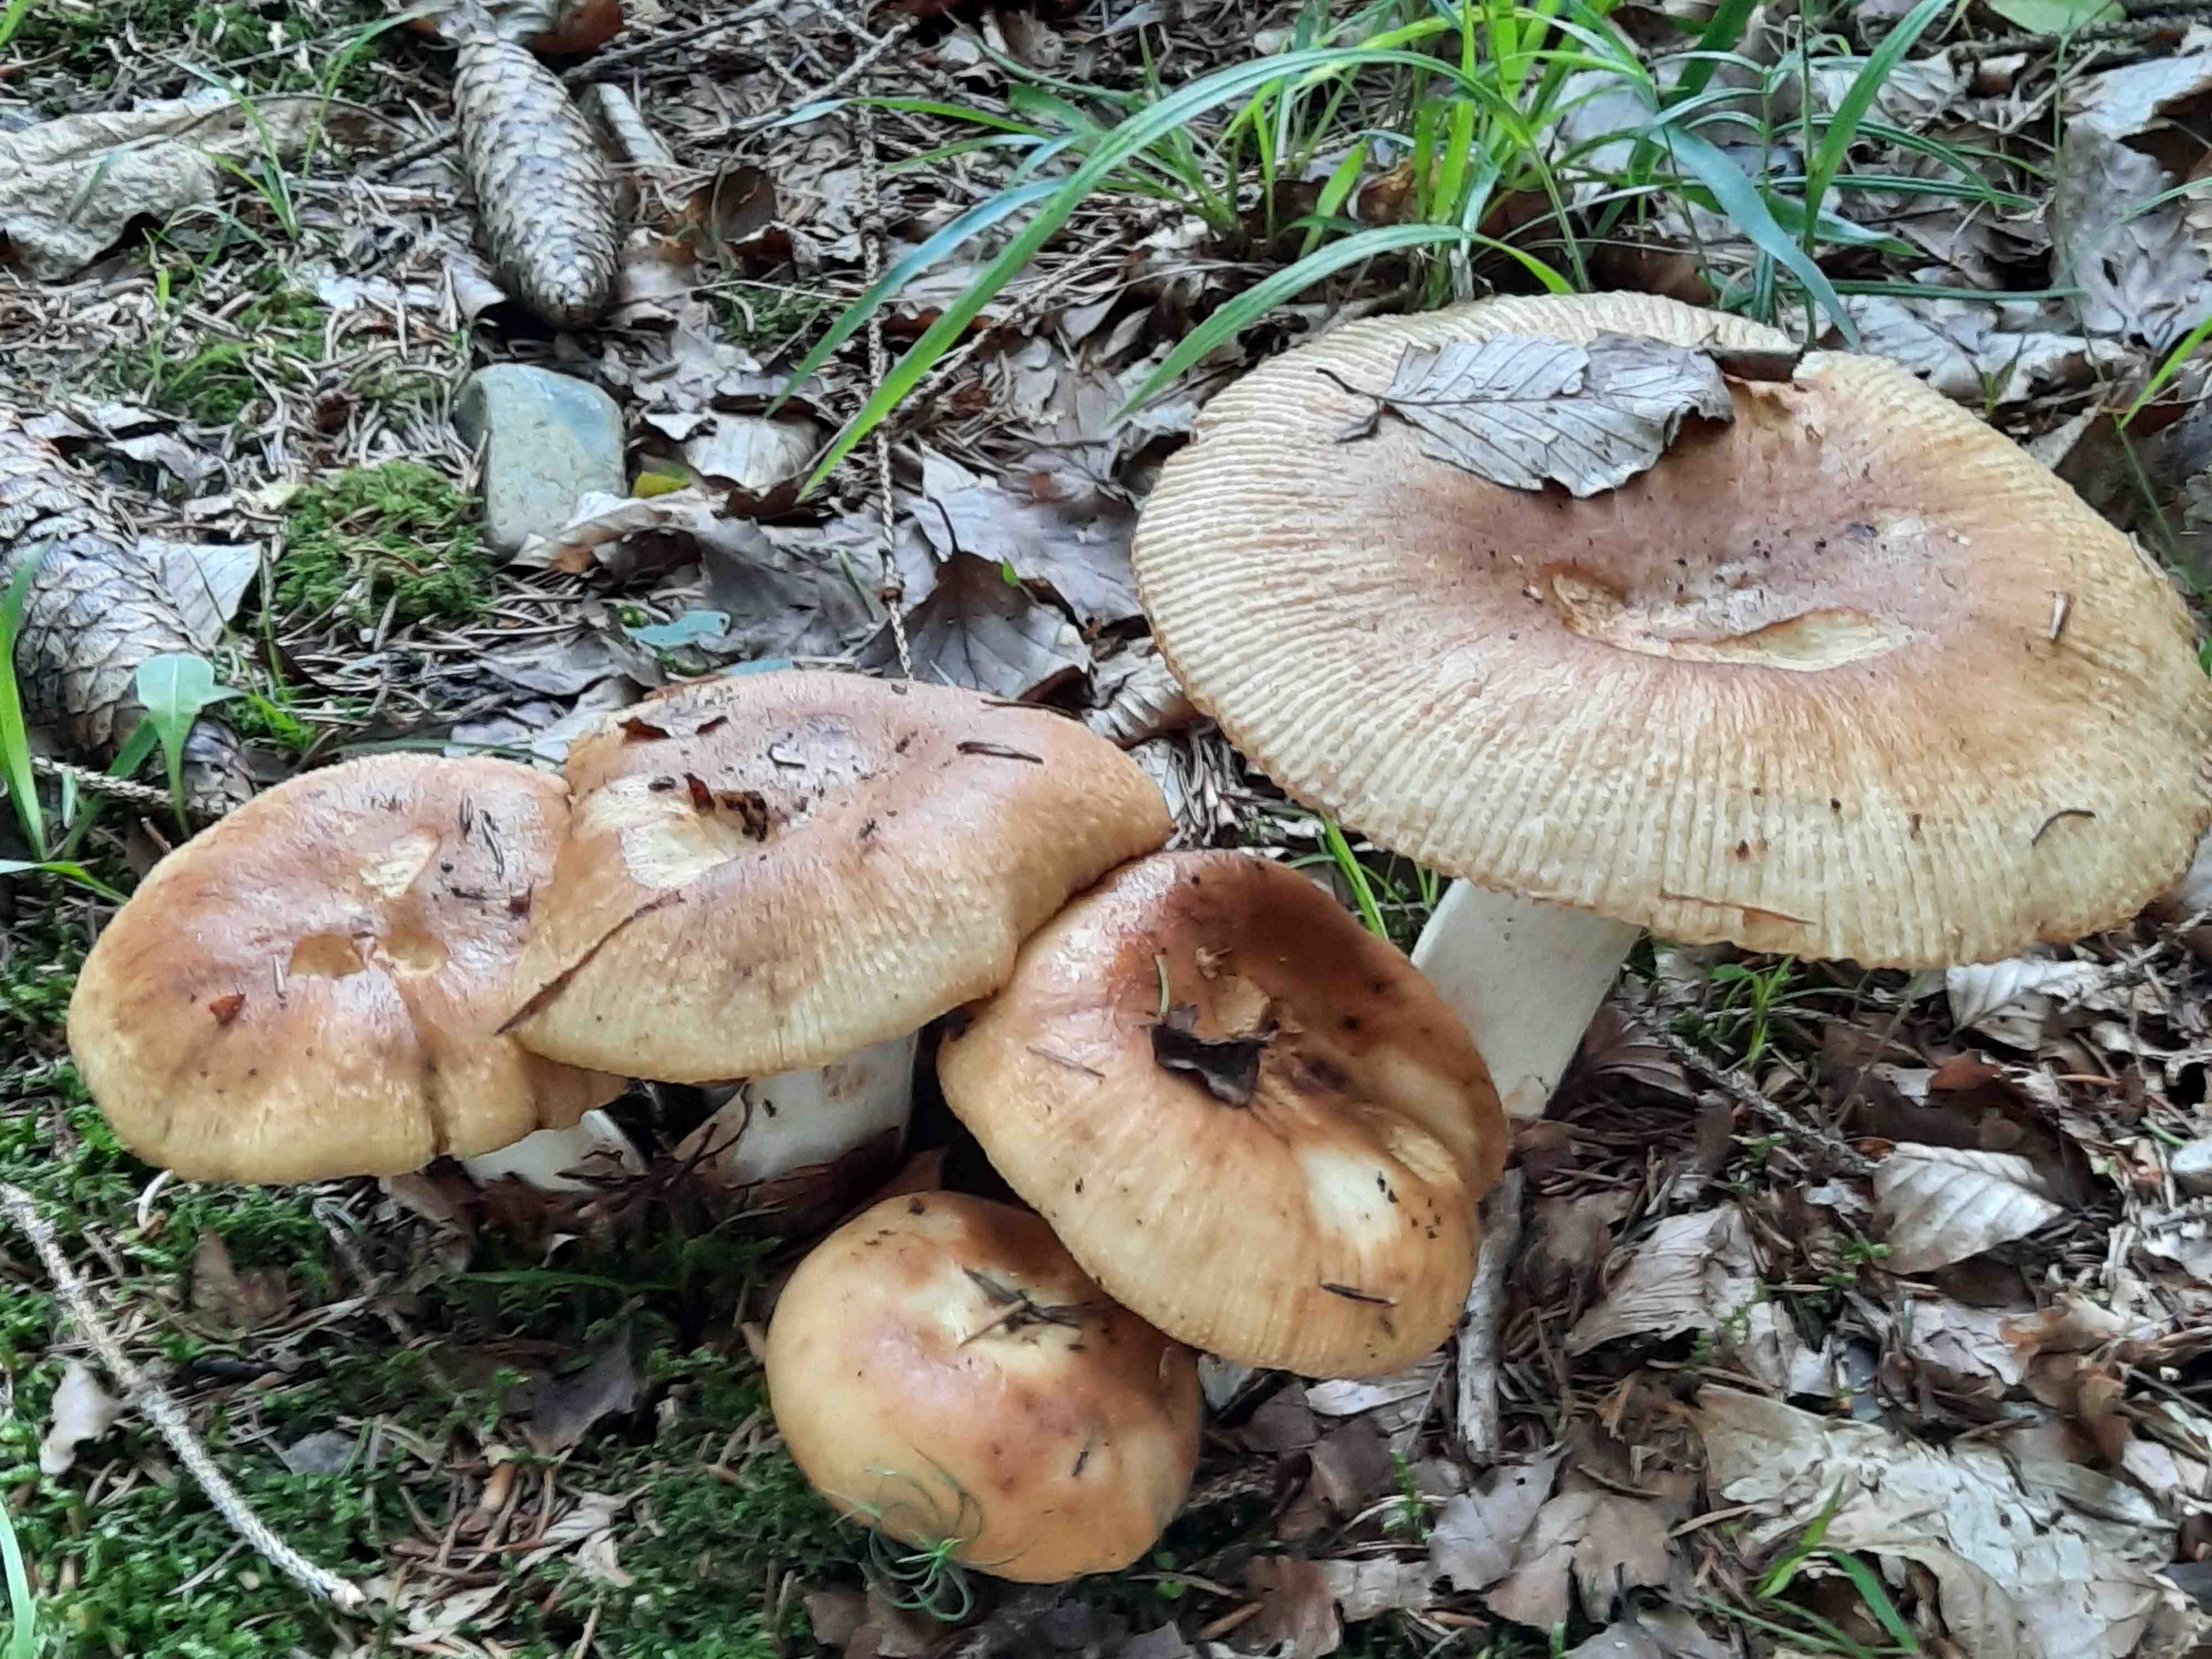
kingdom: Fungi
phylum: Basidiomycota
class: Agaricomycetes
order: Russulales
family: Russulaceae
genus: Russula
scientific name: Russula foetens
